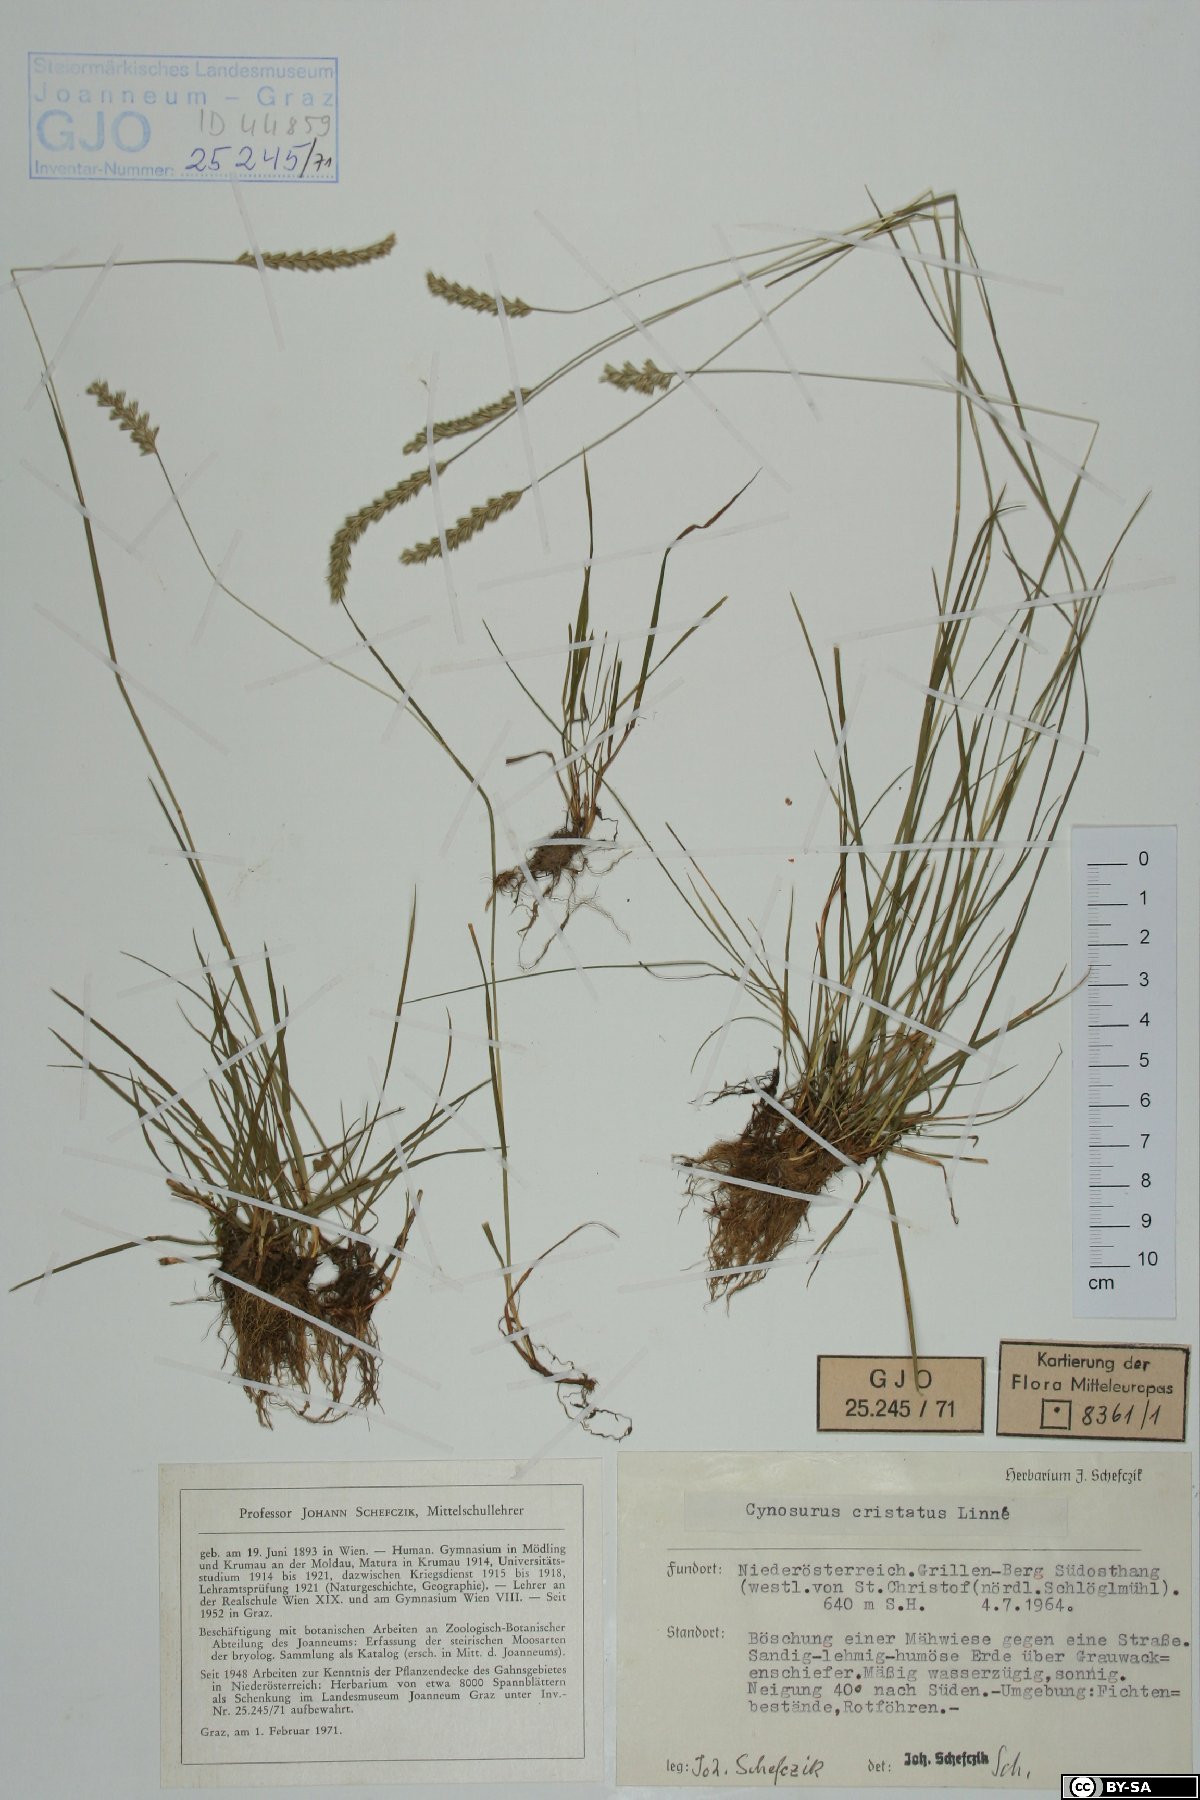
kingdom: Plantae
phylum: Tracheophyta
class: Liliopsida
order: Poales
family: Poaceae
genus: Cynosurus
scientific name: Cynosurus cristatus
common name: Crested dog's-tail
